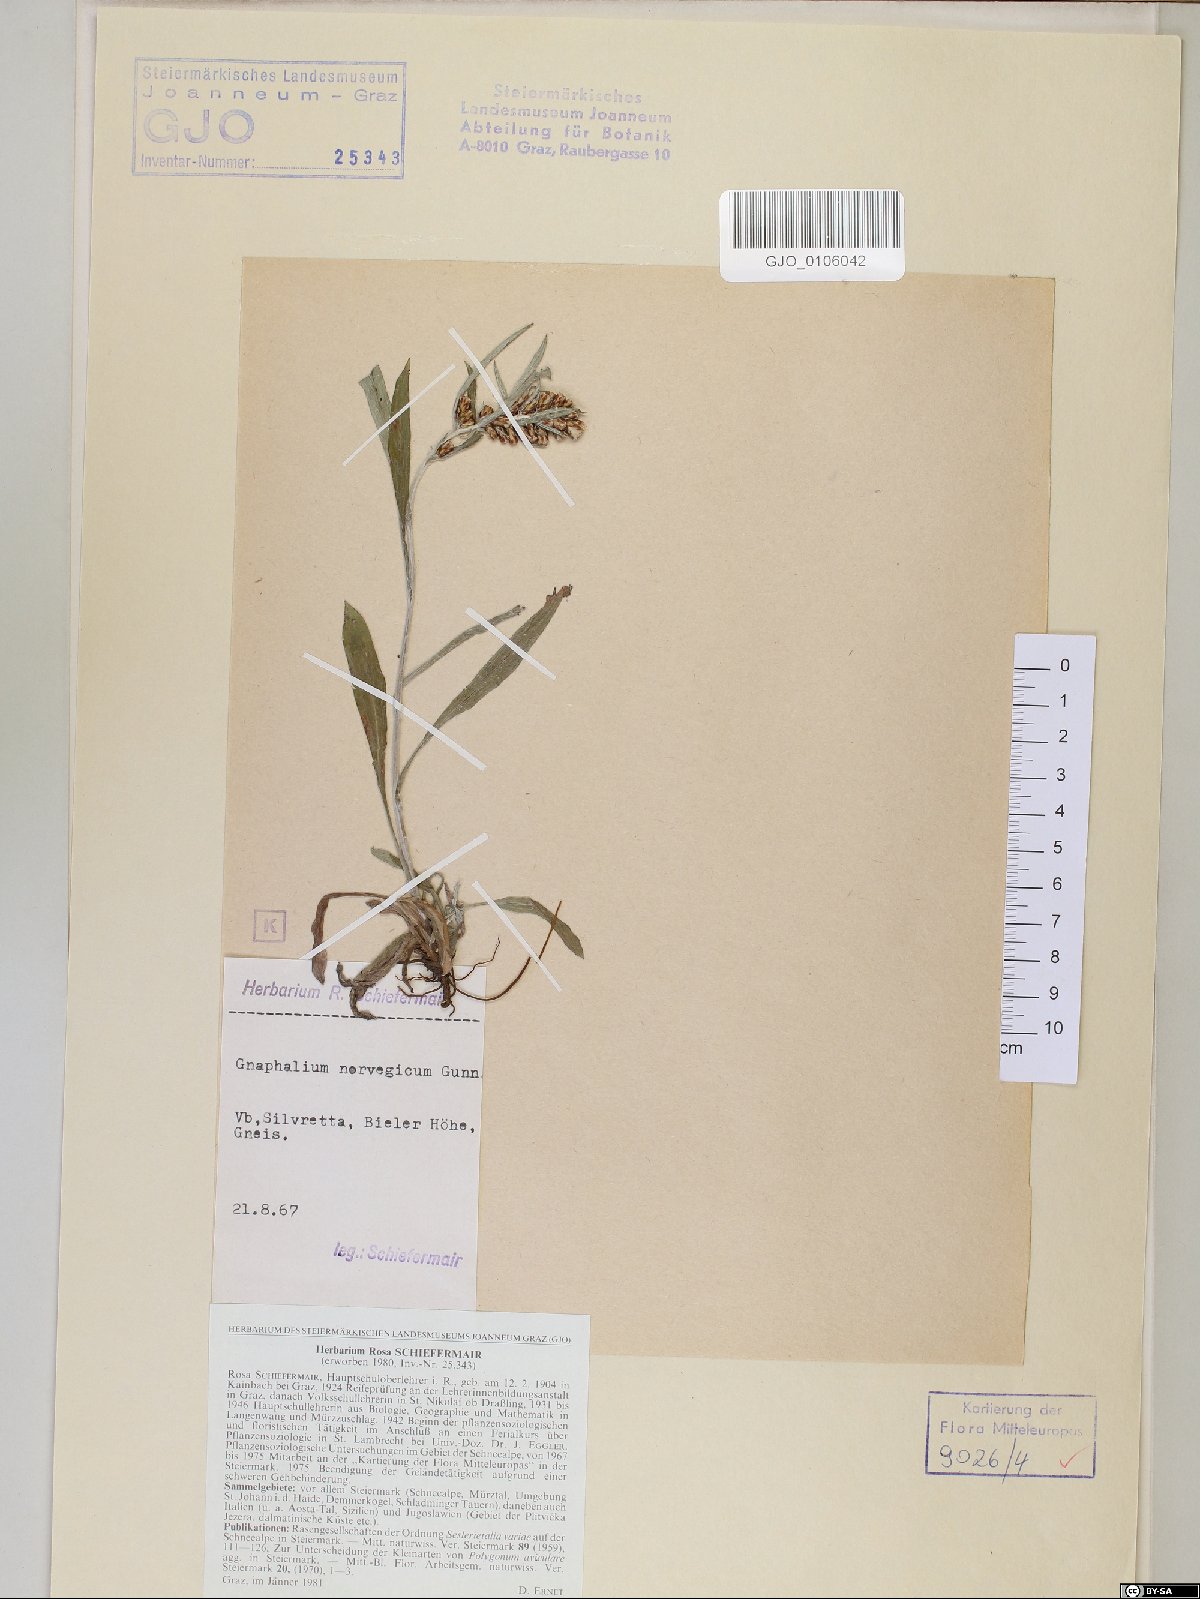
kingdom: Plantae
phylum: Tracheophyta
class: Magnoliopsida
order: Asterales
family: Asteraceae
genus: Omalotheca
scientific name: Omalotheca norvegica
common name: Norwegian arctic-cudweed
